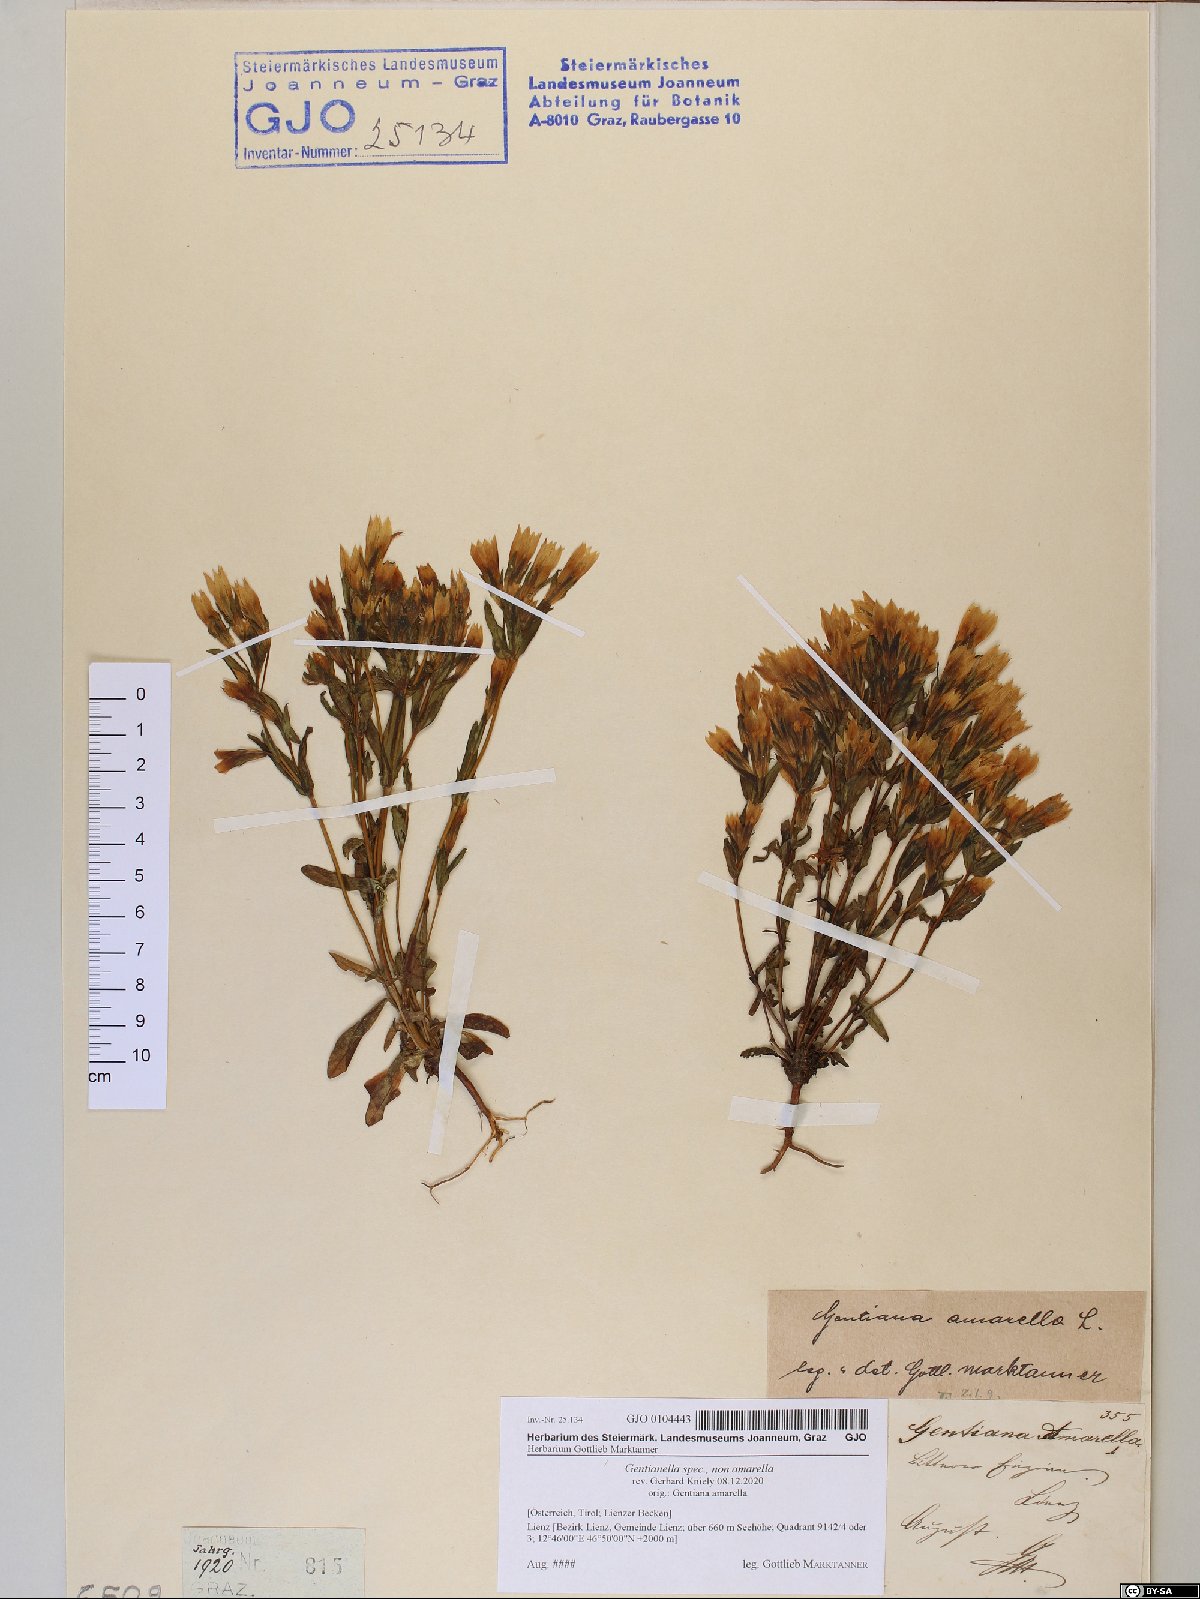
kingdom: Plantae
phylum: Tracheophyta
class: Magnoliopsida
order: Gentianales
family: Gentianaceae
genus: Gentianella
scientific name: Gentianella
